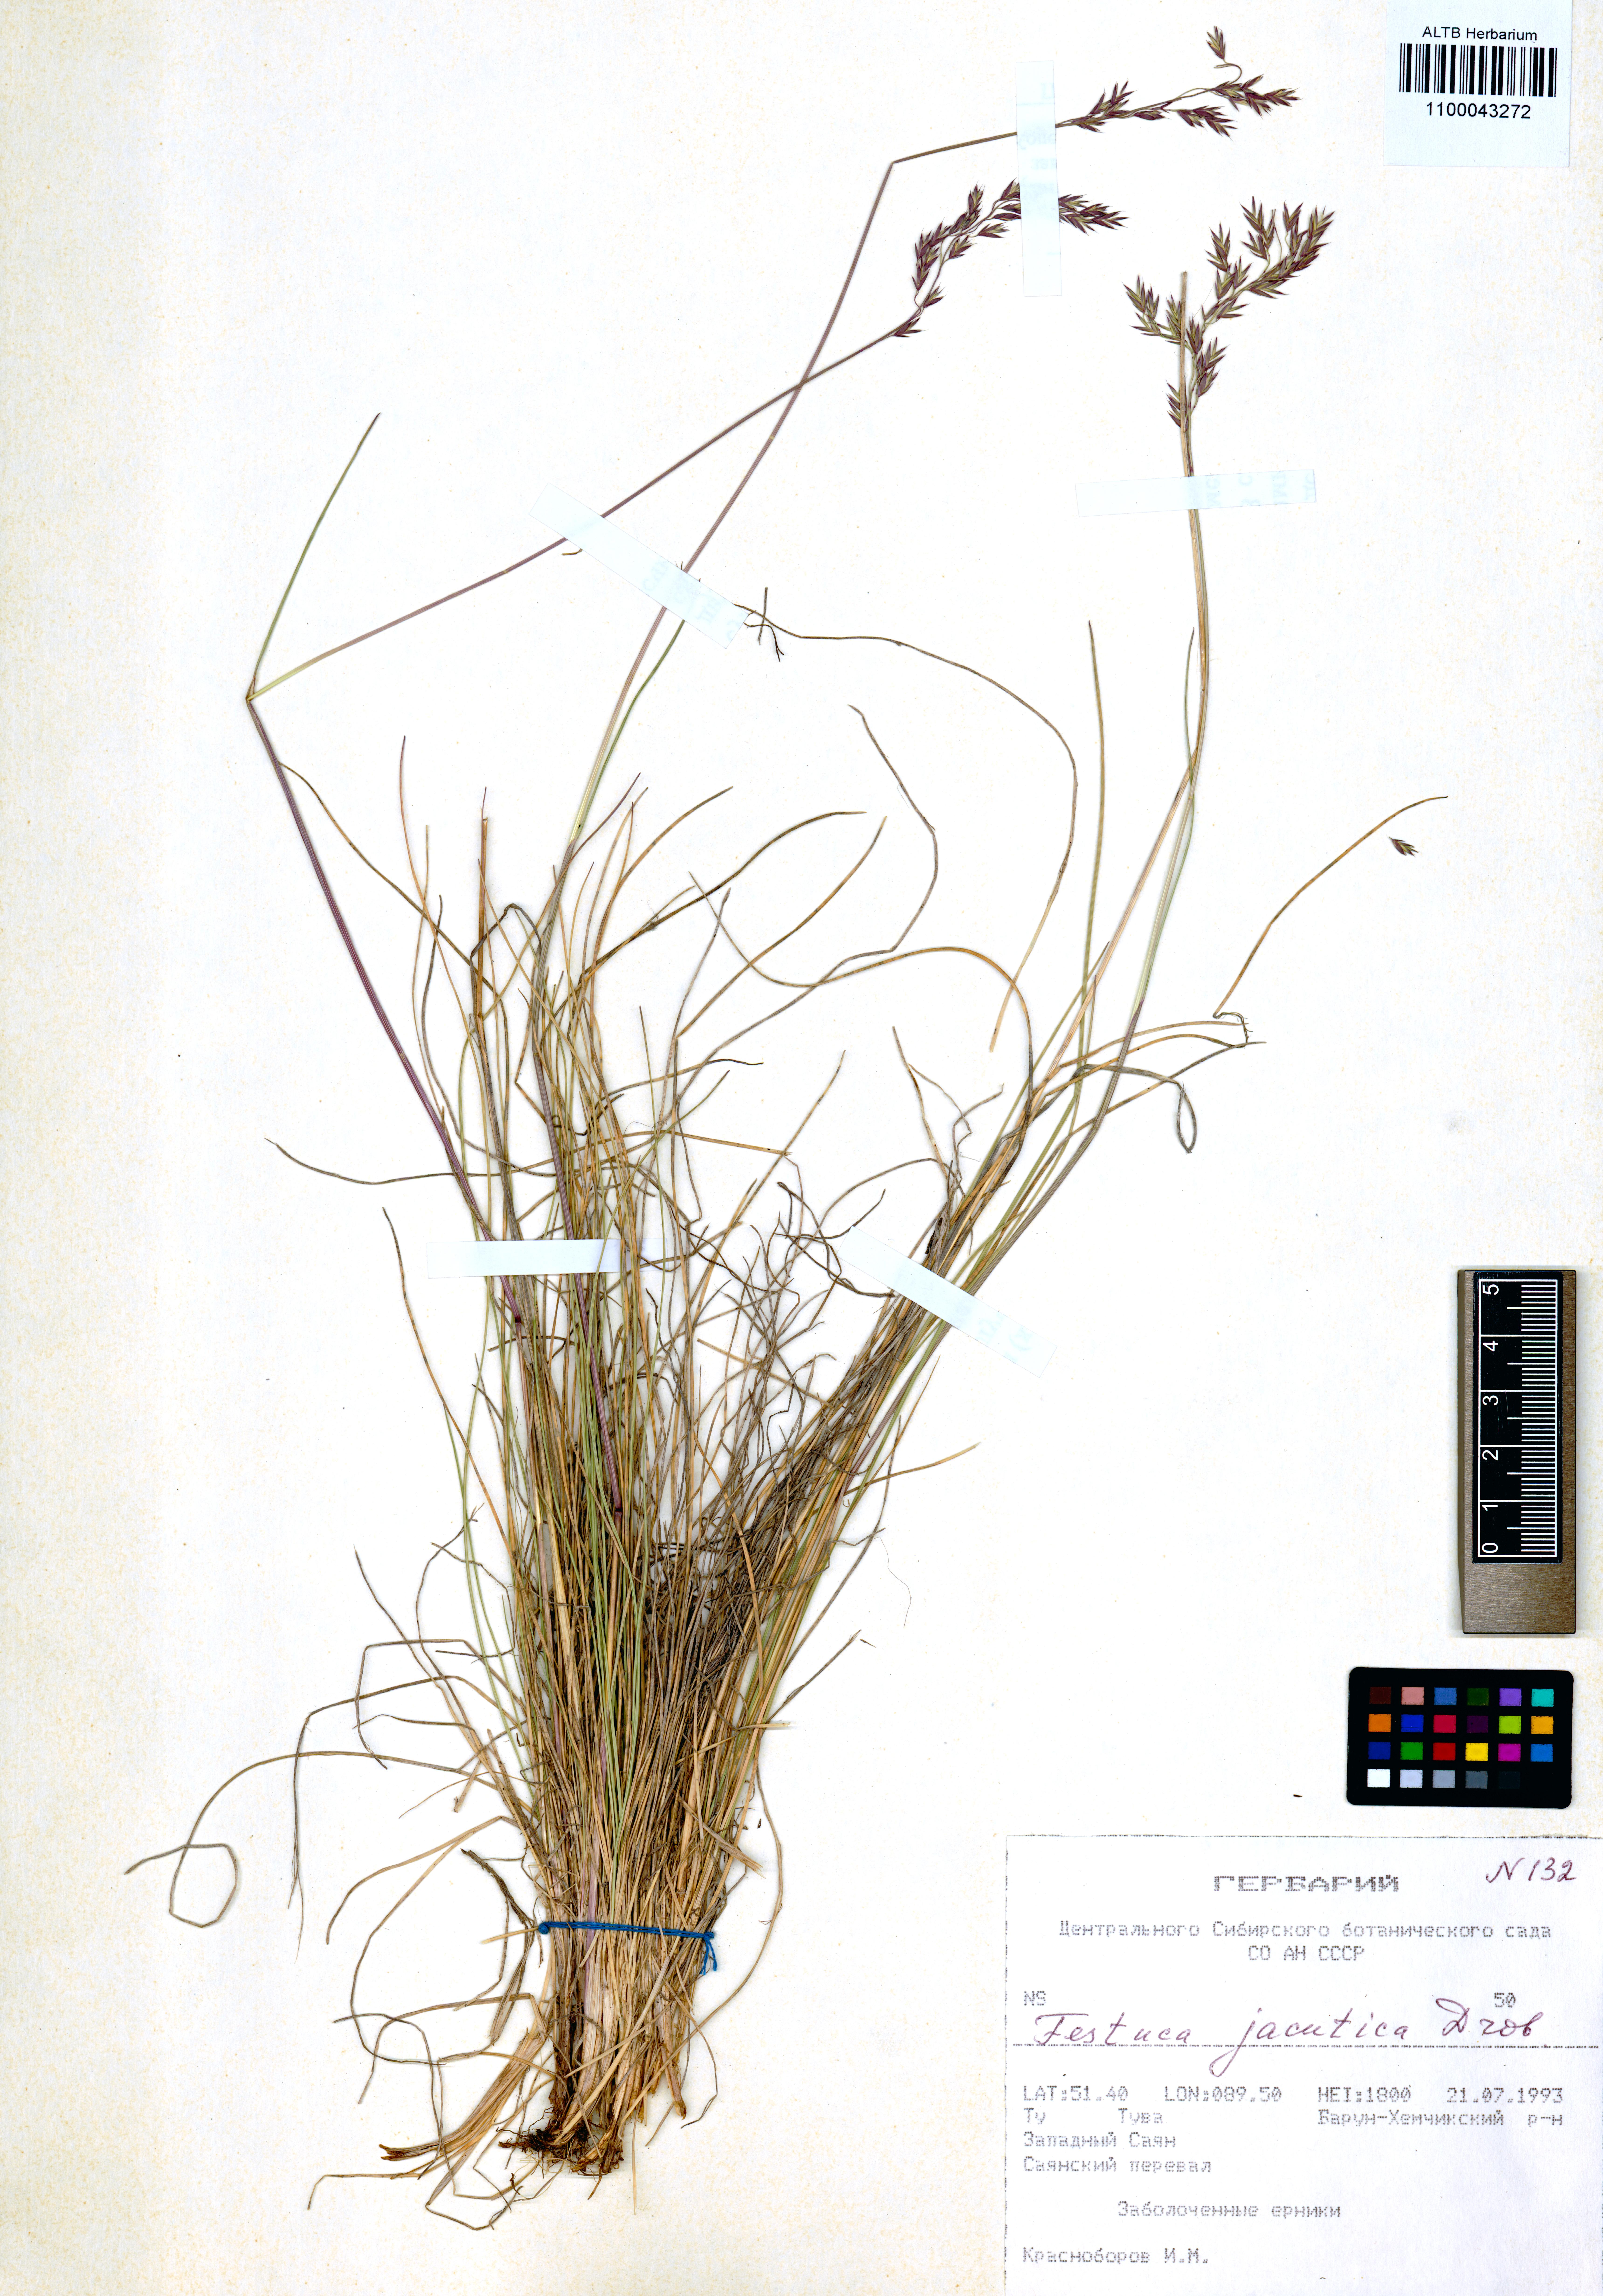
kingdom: Plantae
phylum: Tracheophyta
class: Liliopsida
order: Poales
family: Poaceae
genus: Festuca
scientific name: Festuca jacutica
